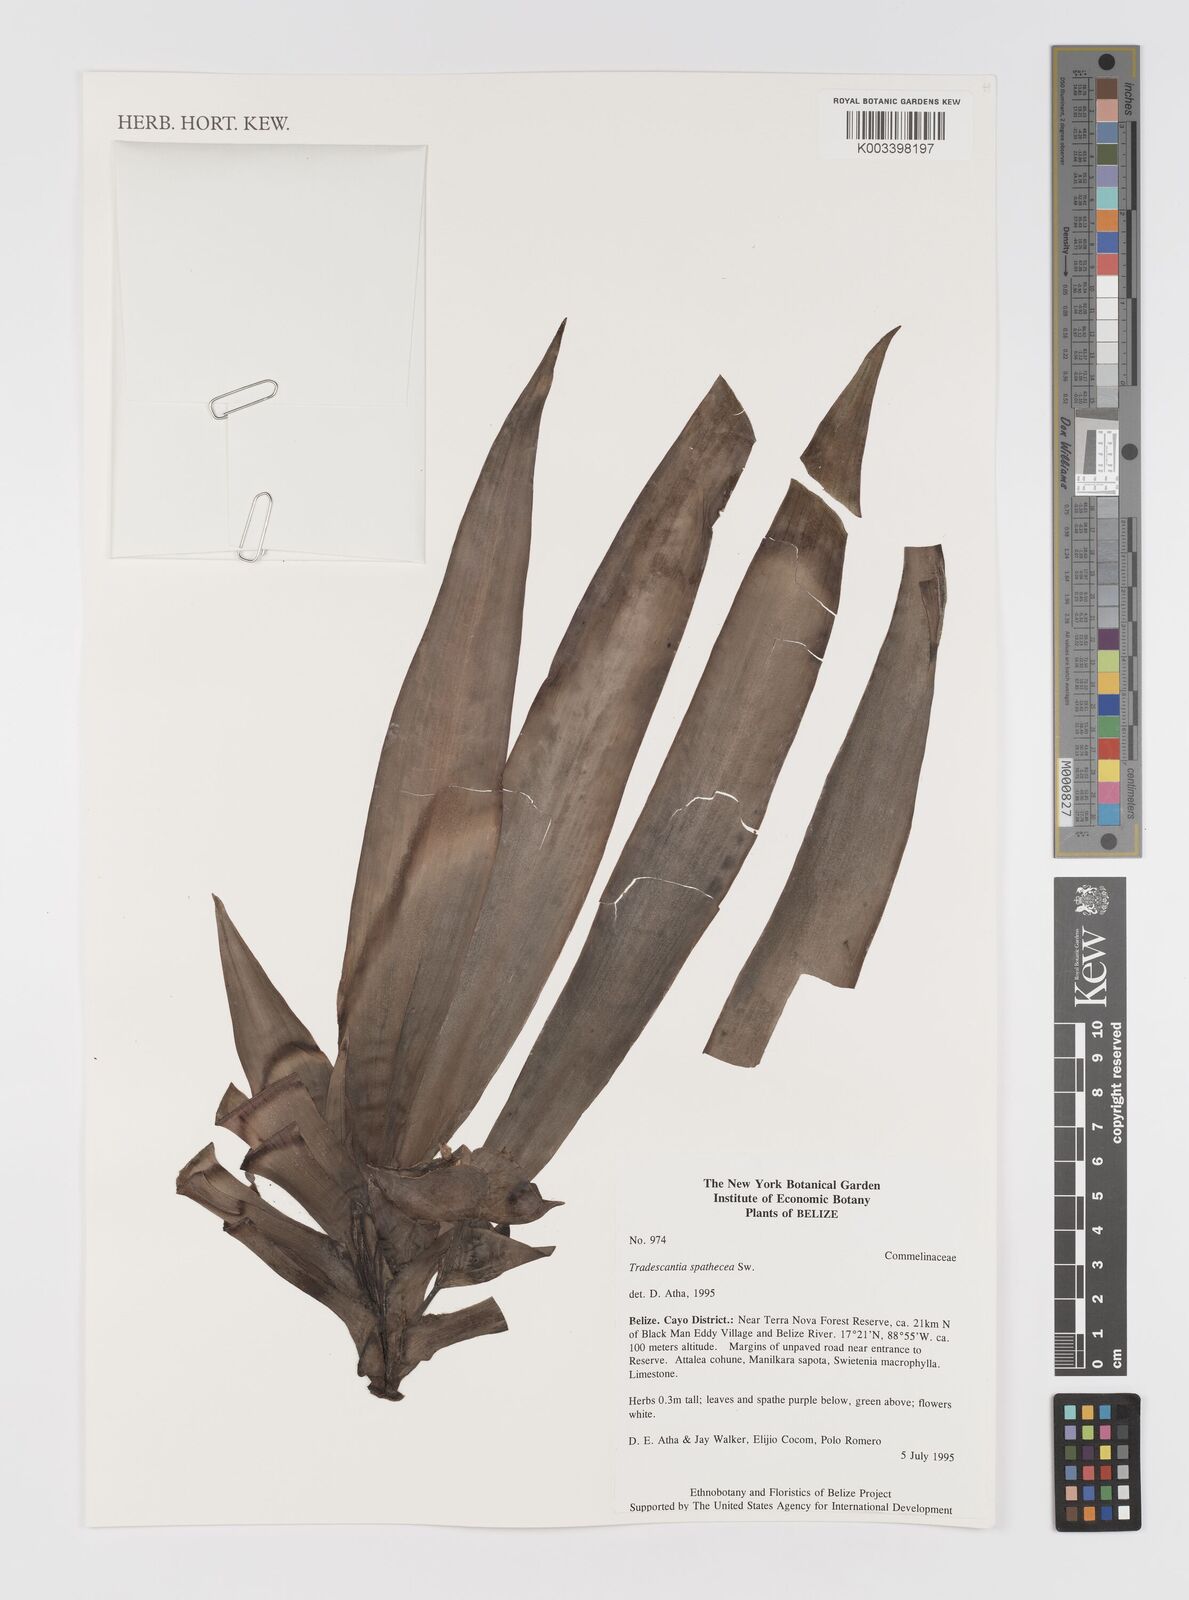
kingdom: Plantae
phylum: Tracheophyta
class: Liliopsida
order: Commelinales
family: Commelinaceae
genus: Tradescantia
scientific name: Tradescantia spathacea
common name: Boatlily
